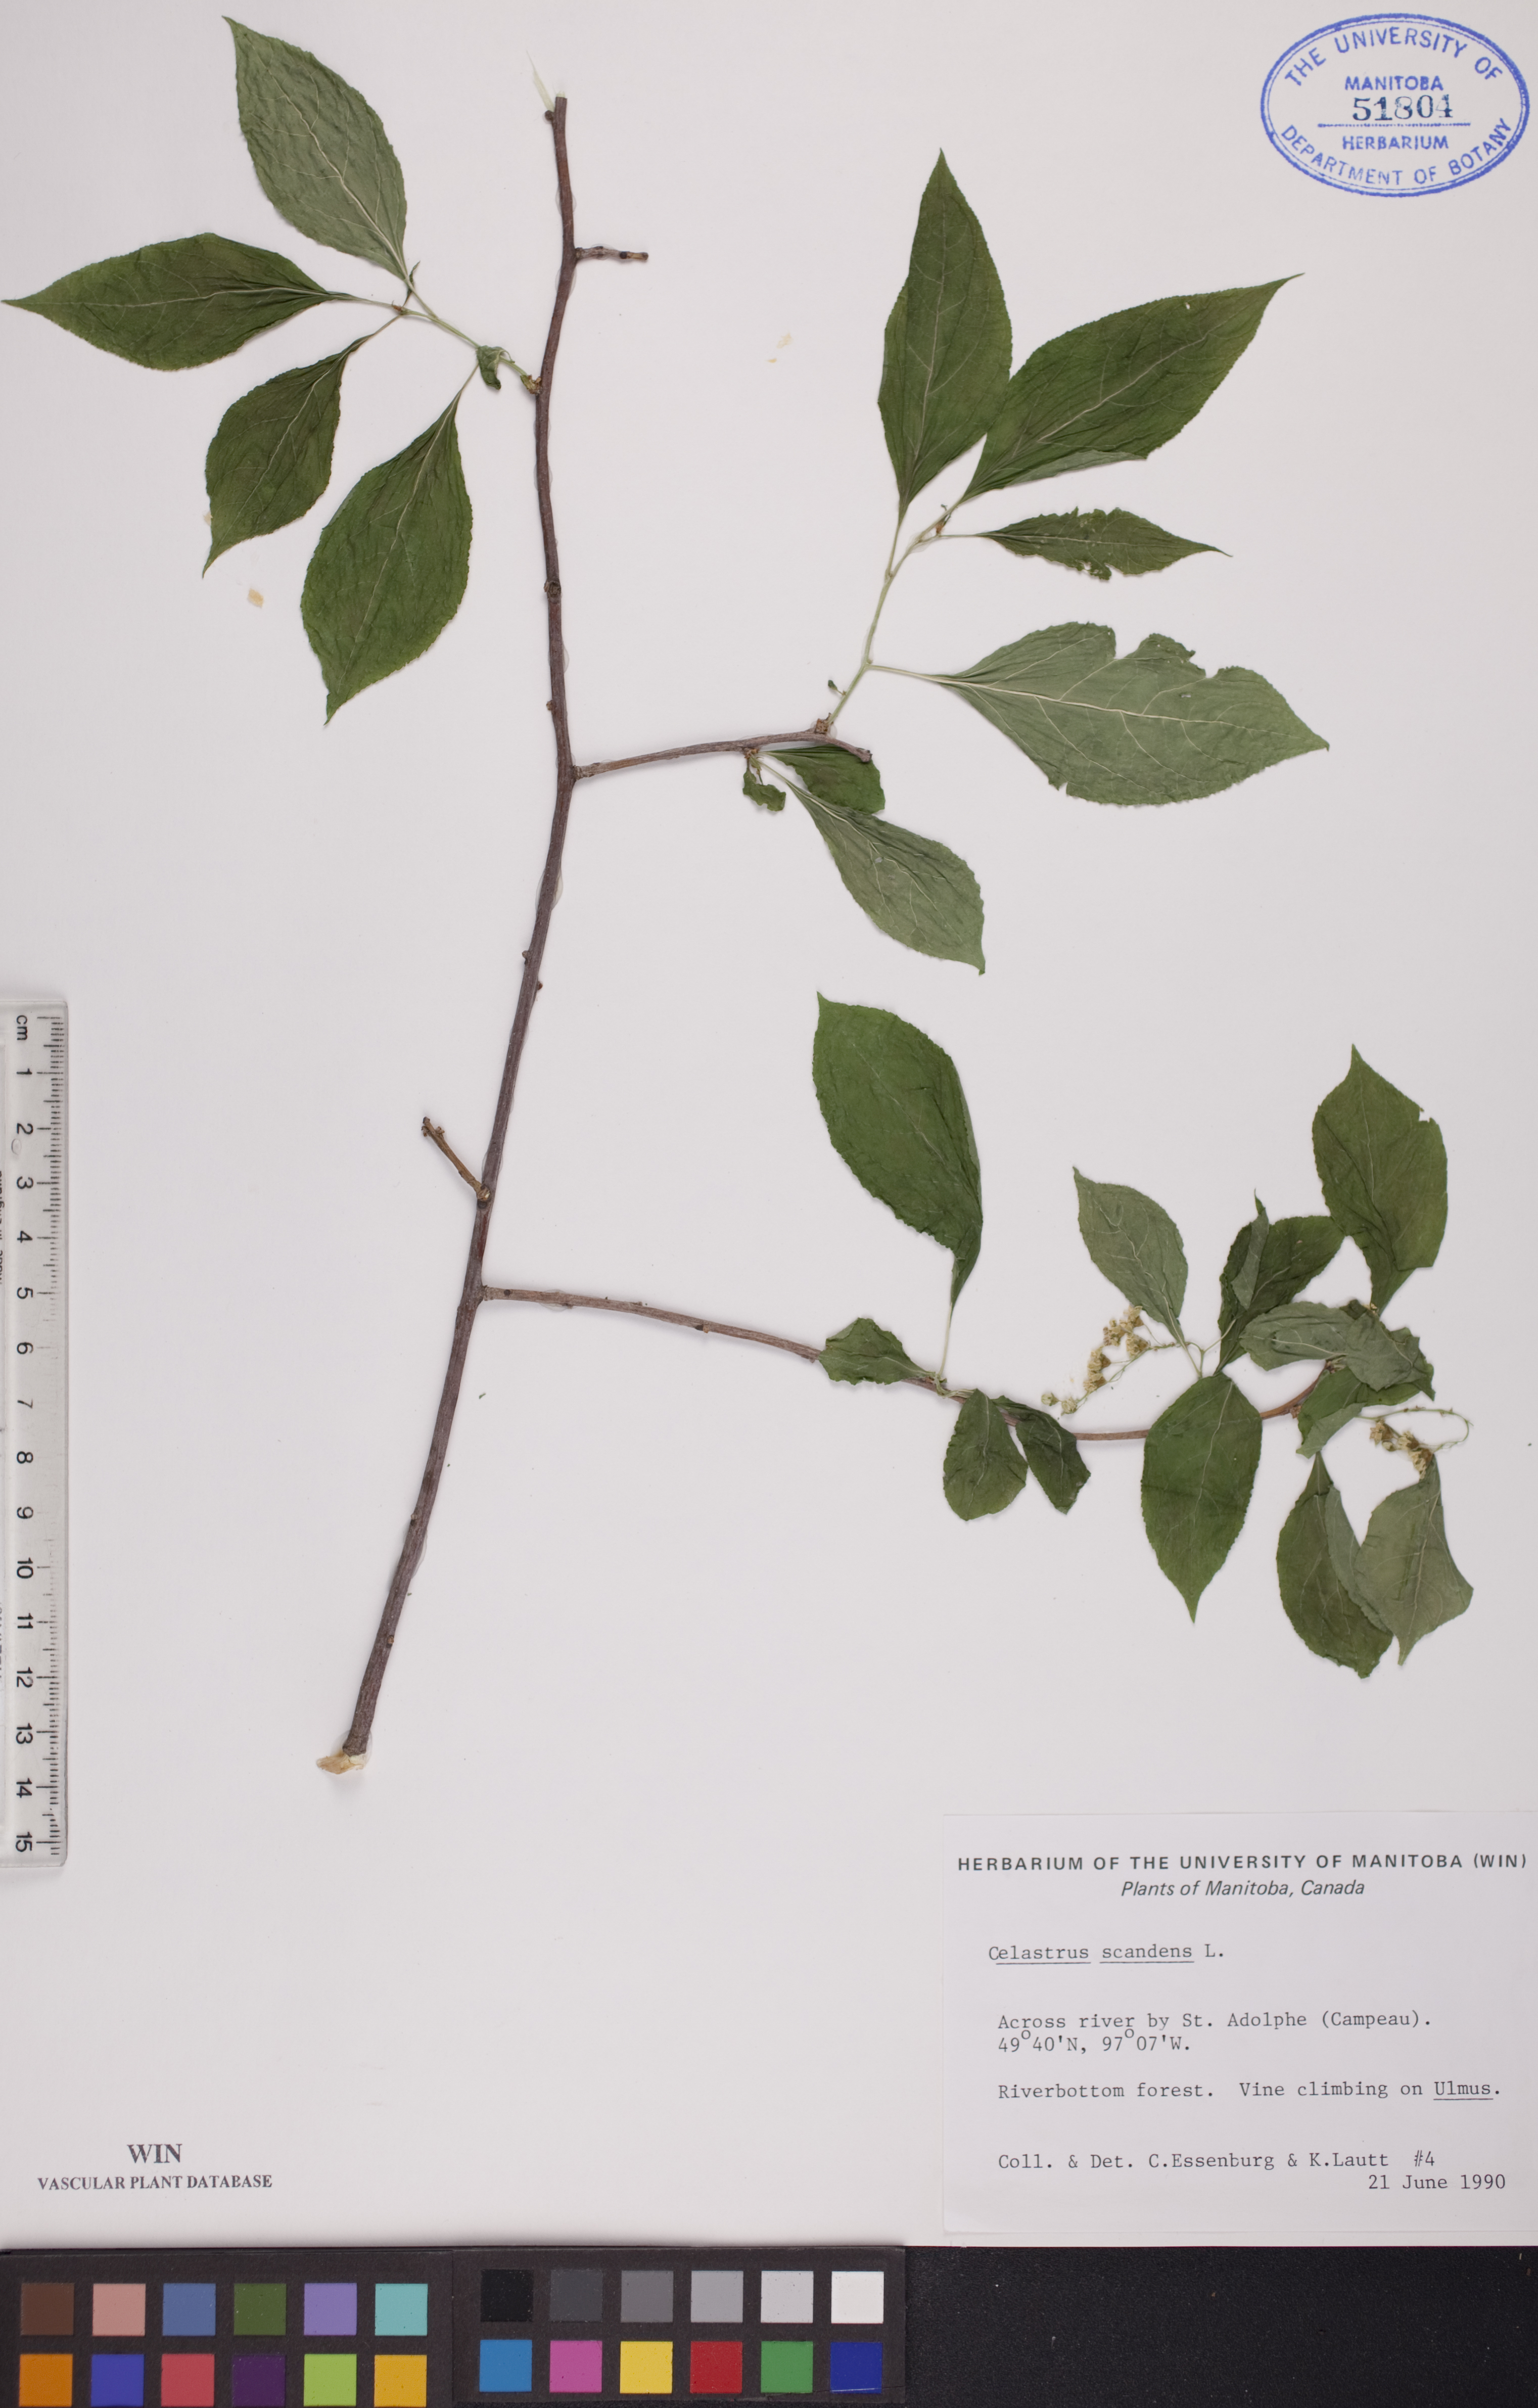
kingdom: Plantae
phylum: Tracheophyta
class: Magnoliopsida
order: Celastrales
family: Celastraceae
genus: Celastrus
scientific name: Celastrus scandens
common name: American bittersweet
